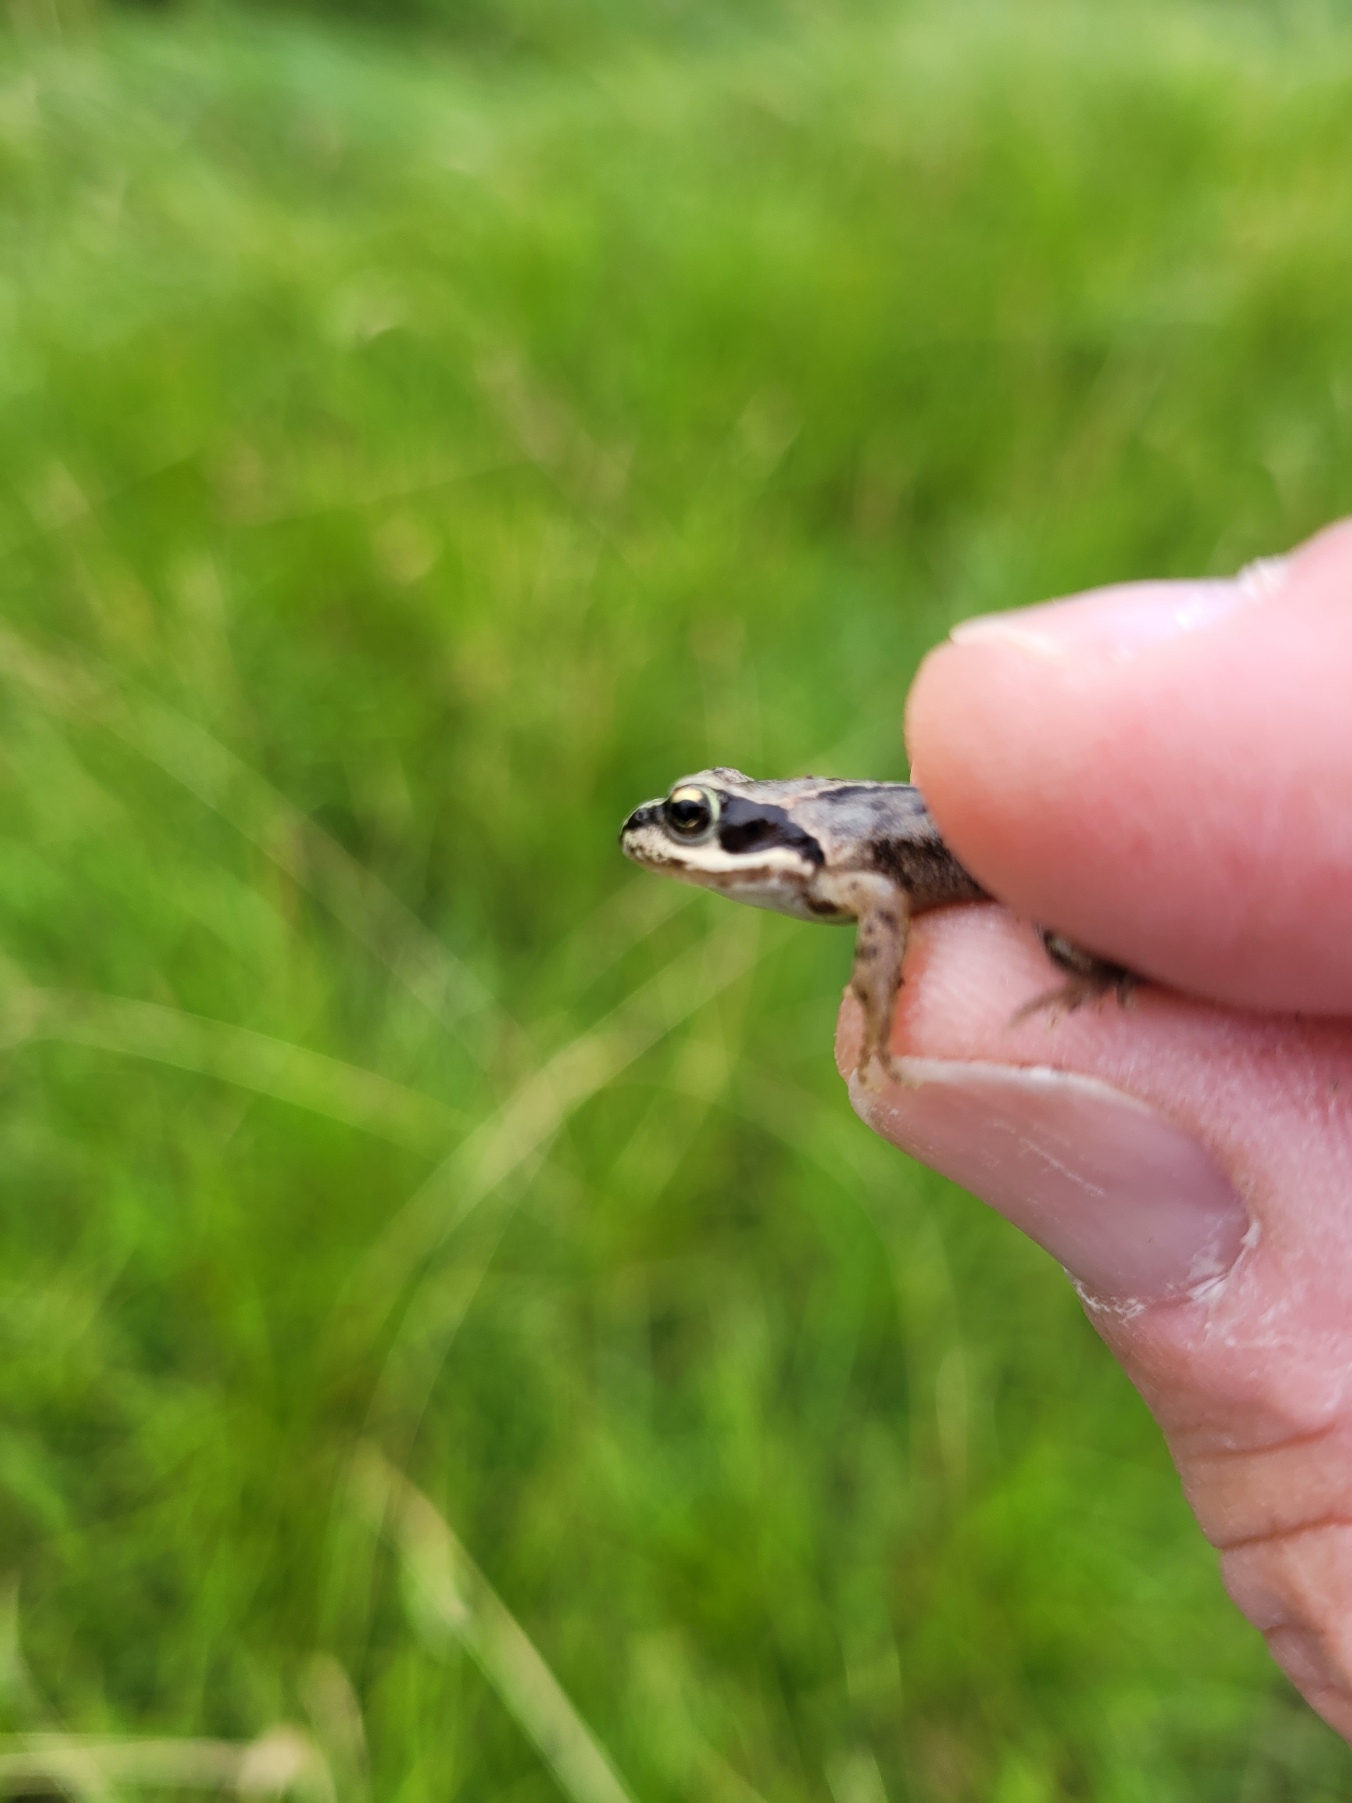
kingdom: Animalia
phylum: Chordata
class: Amphibia
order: Anura
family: Ranidae
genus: Rana
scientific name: Rana temporaria
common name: Butsnudet frø
